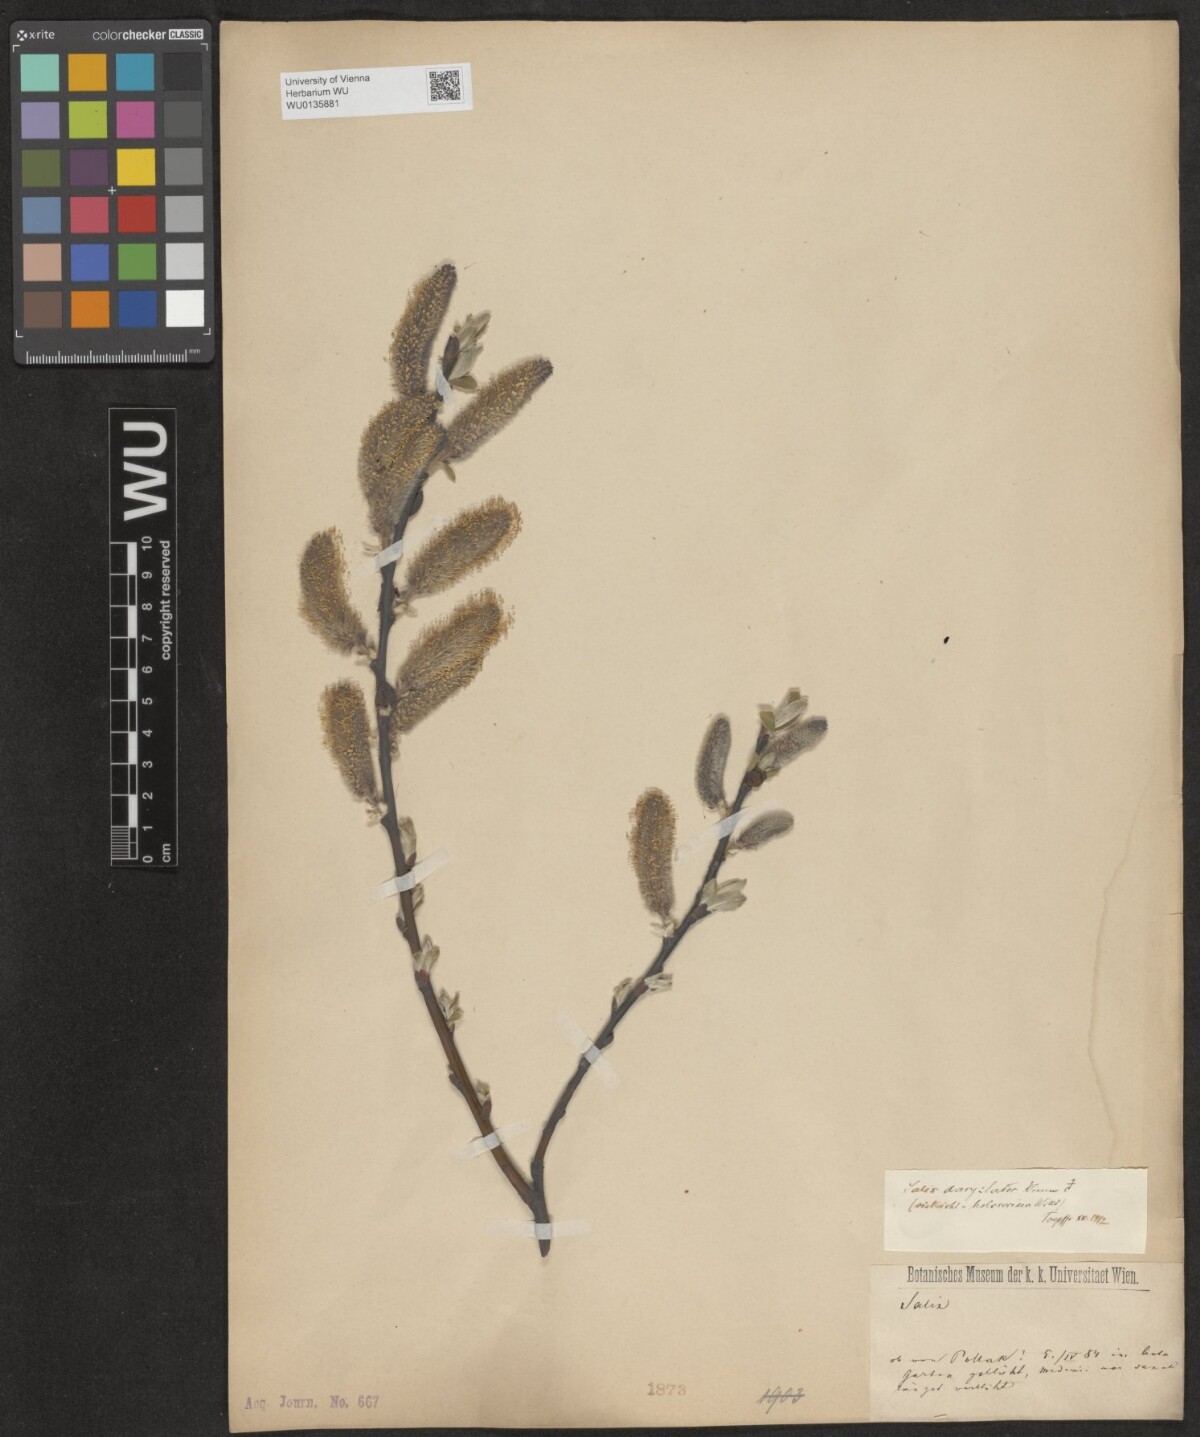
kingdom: Plantae
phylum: Tracheophyta
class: Magnoliopsida
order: Malpighiales
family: Salicaceae
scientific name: Salicaceae
